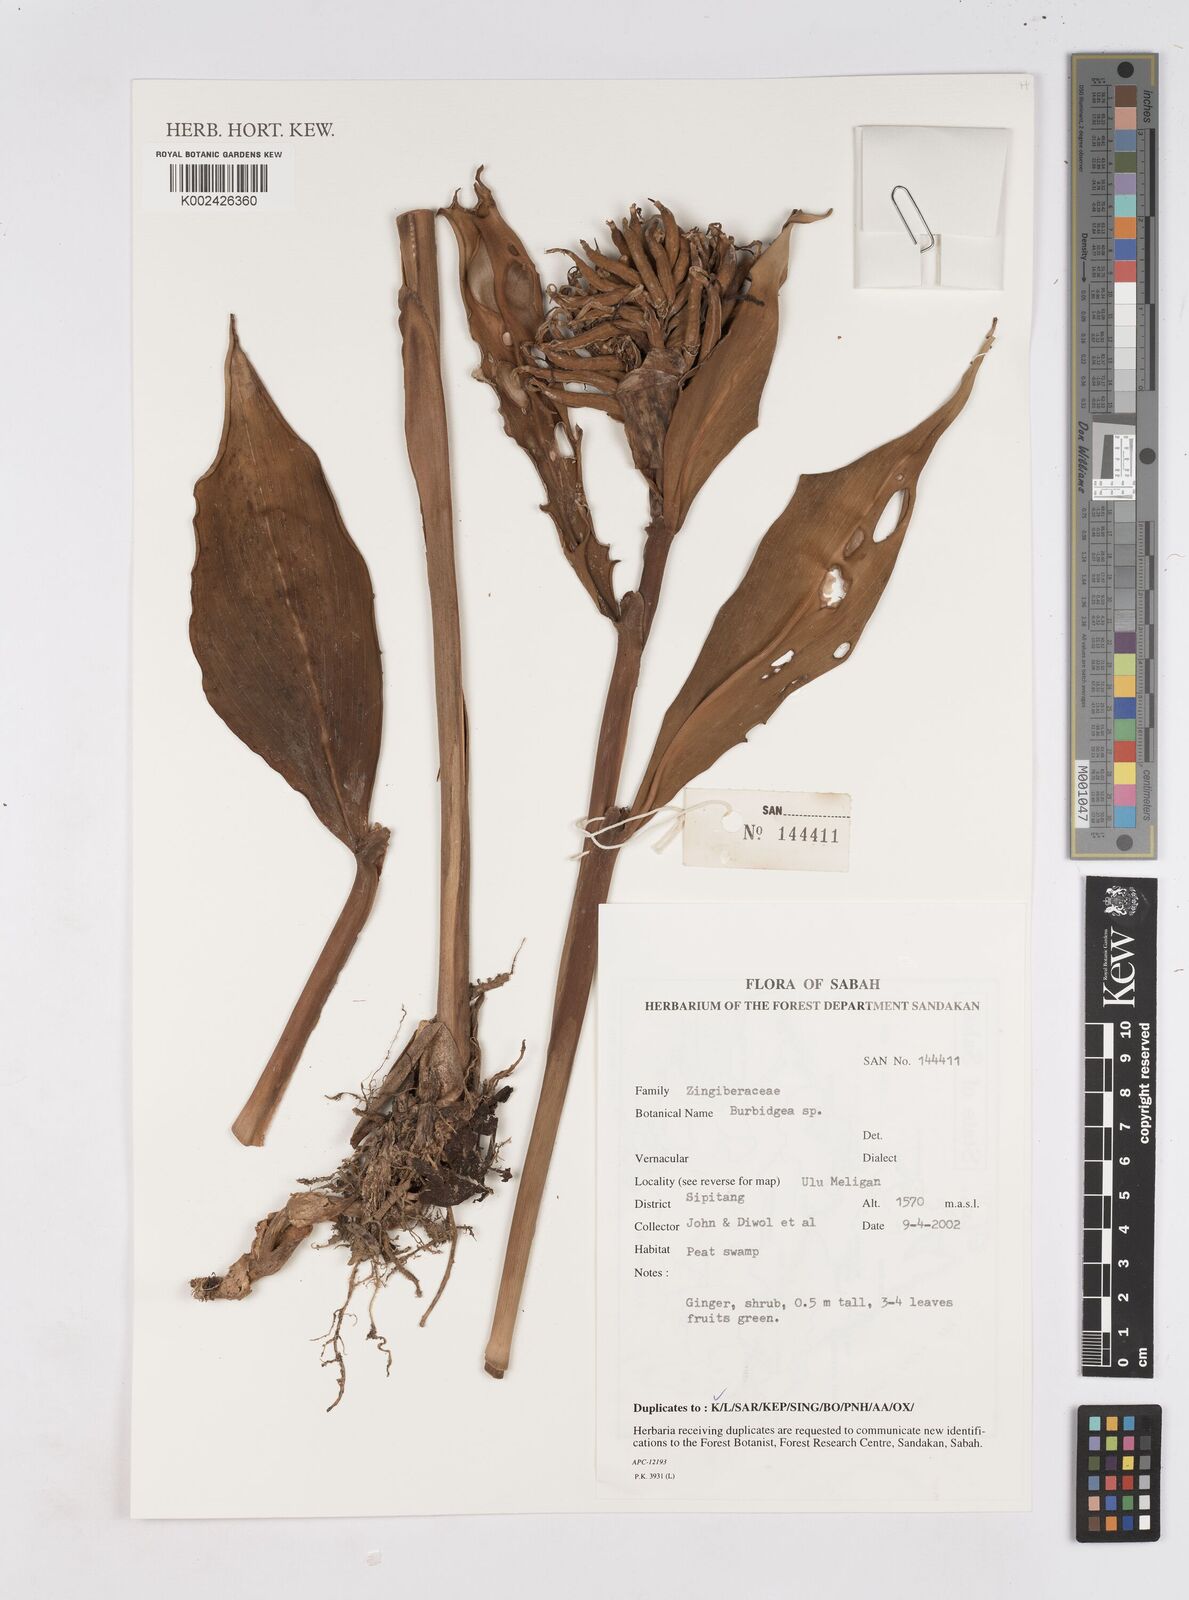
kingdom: Plantae
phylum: Tracheophyta
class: Liliopsida
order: Zingiberales
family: Zingiberaceae
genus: Burbidgea
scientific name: Burbidgea
